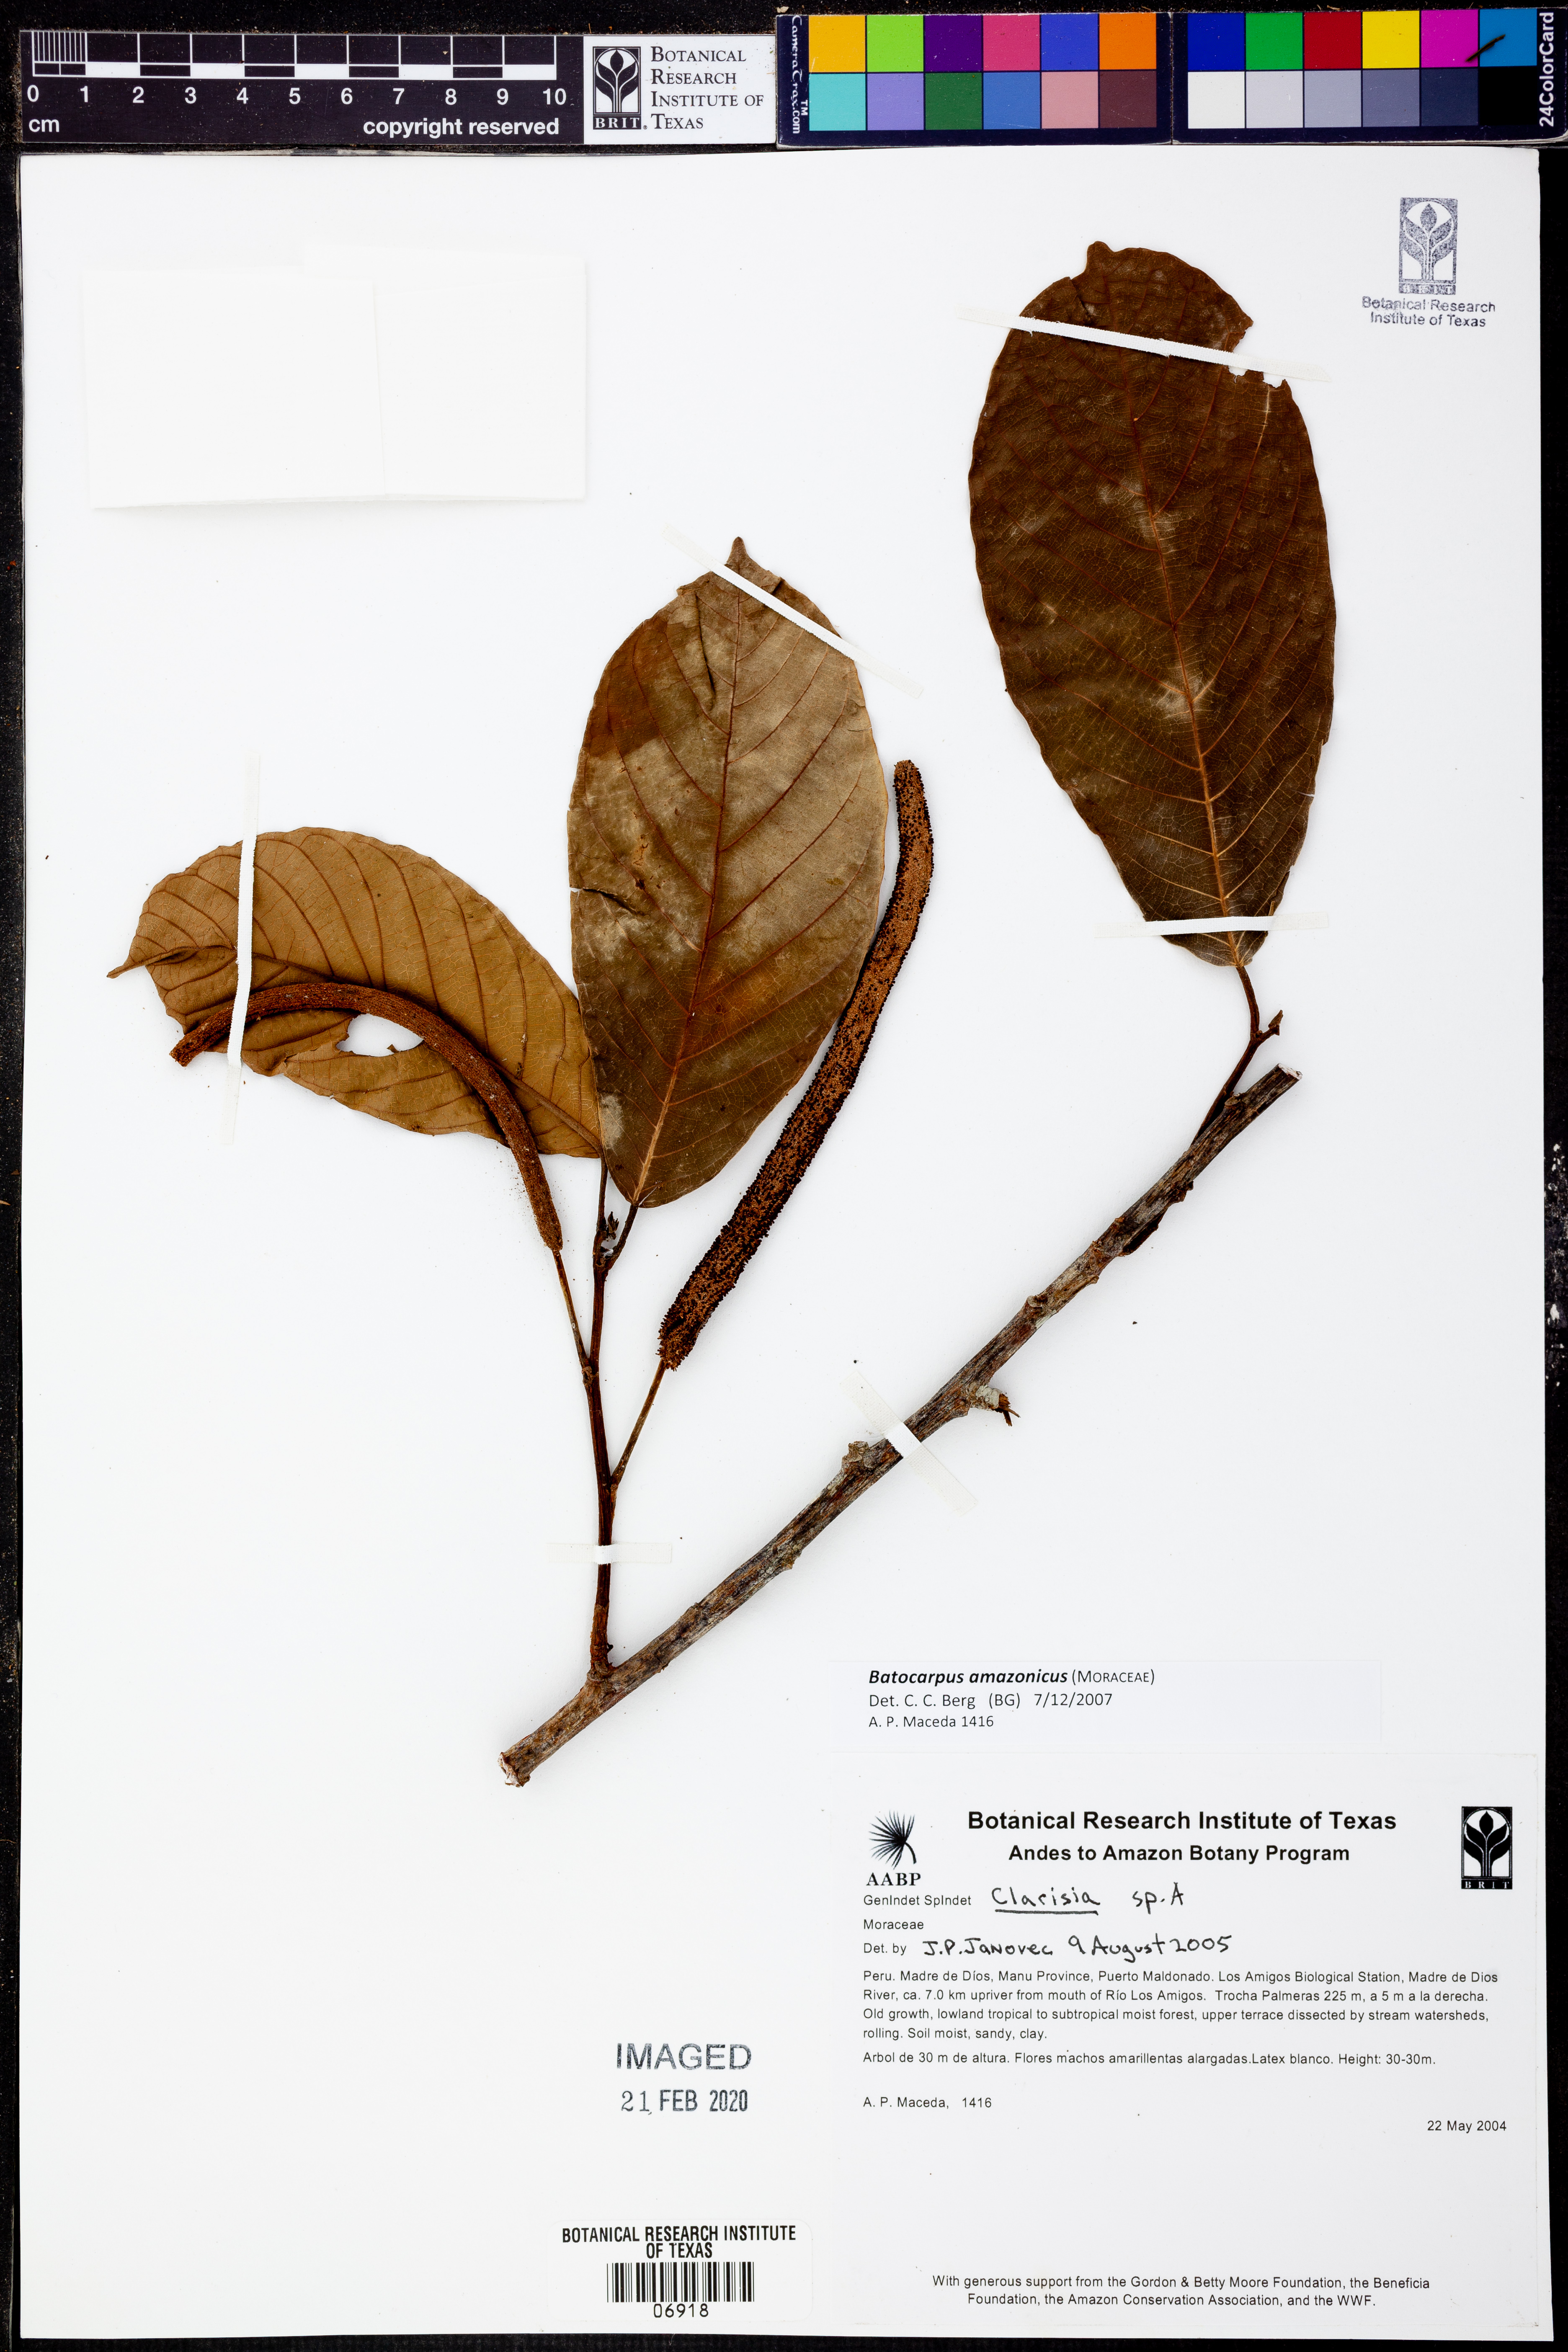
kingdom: Plantae
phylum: Tracheophyta
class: Magnoliopsida
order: Rosales
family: Moraceae
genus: Batocarpus
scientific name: Batocarpus
